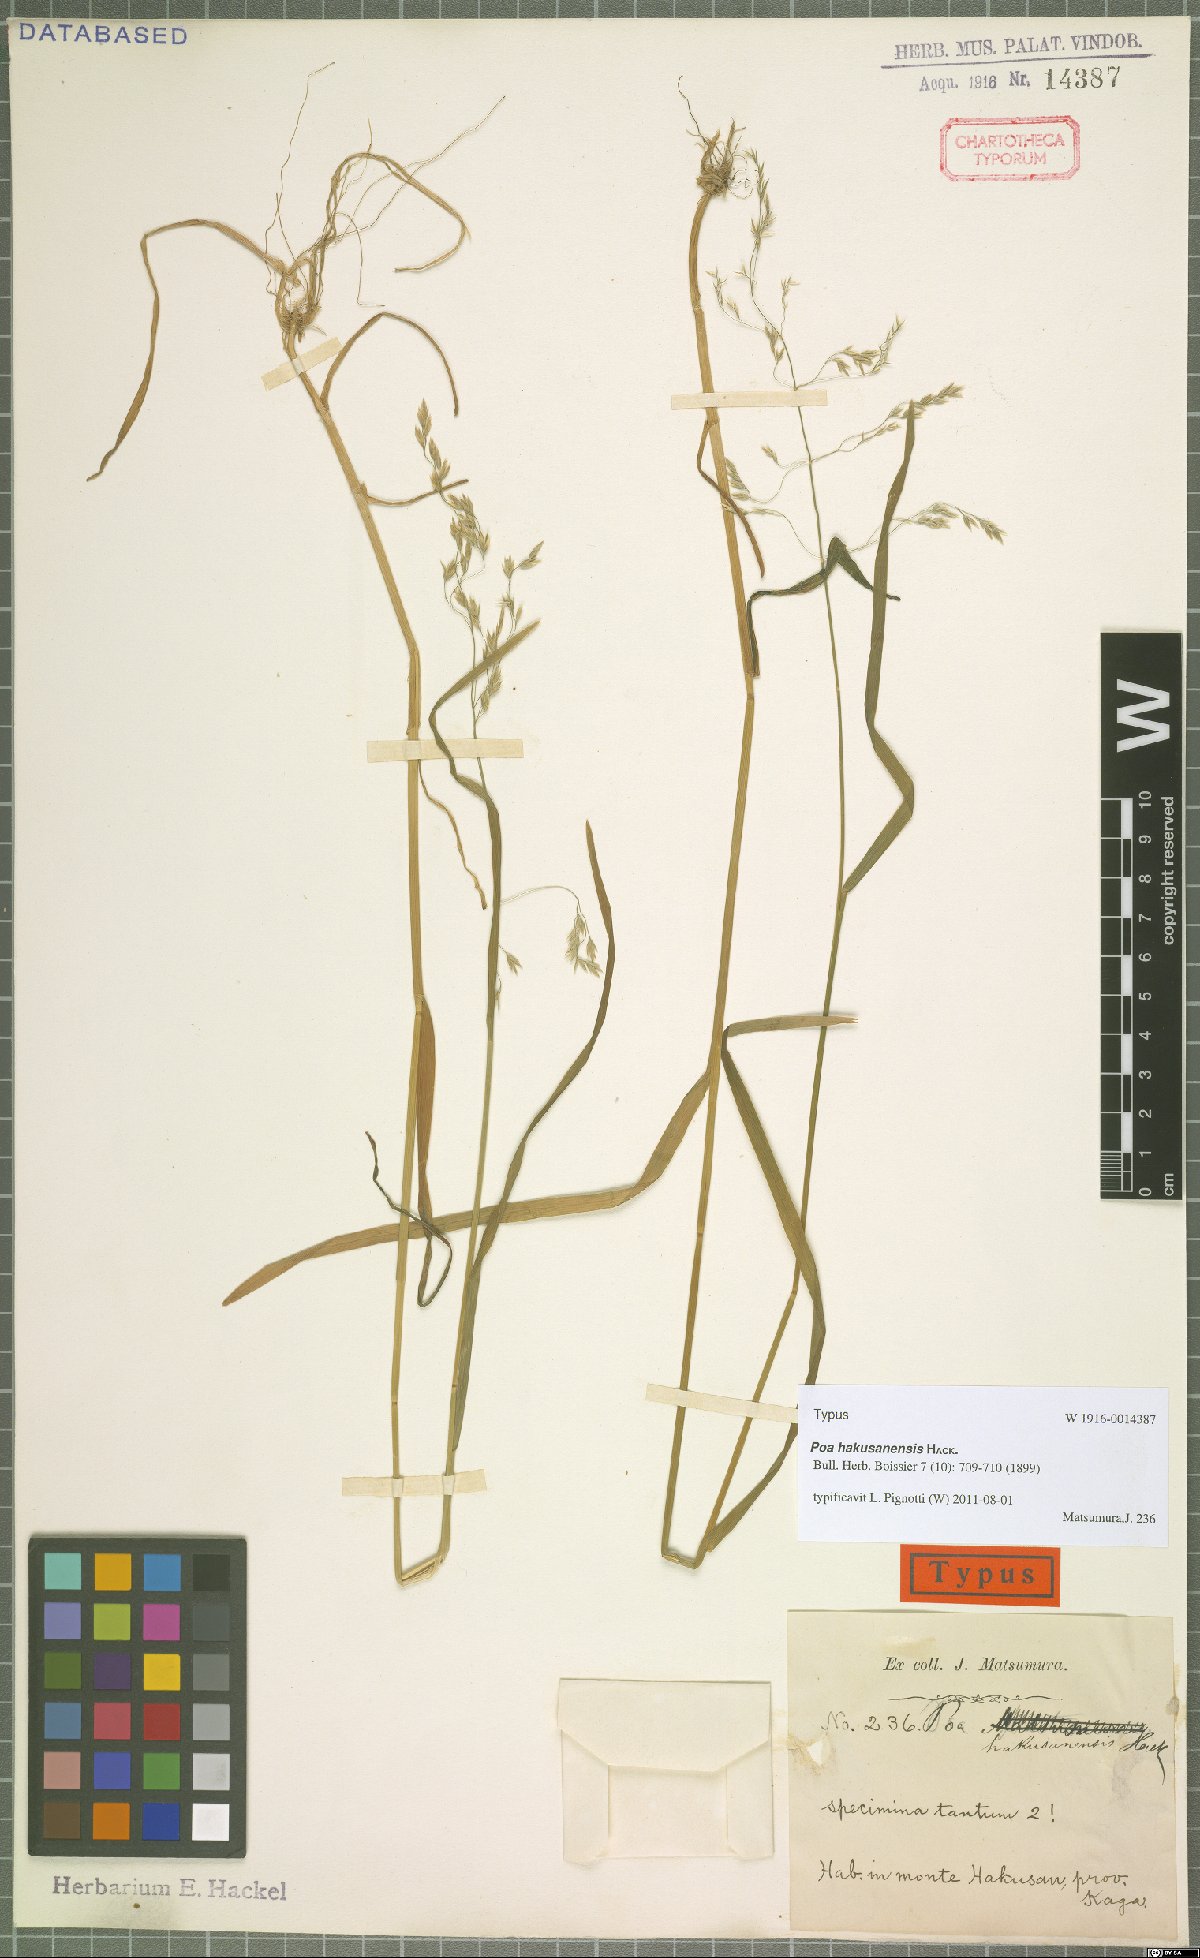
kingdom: Plantae
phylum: Tracheophyta
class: Liliopsida
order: Poales
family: Poaceae
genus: Poa
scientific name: Poa hakusanensis
